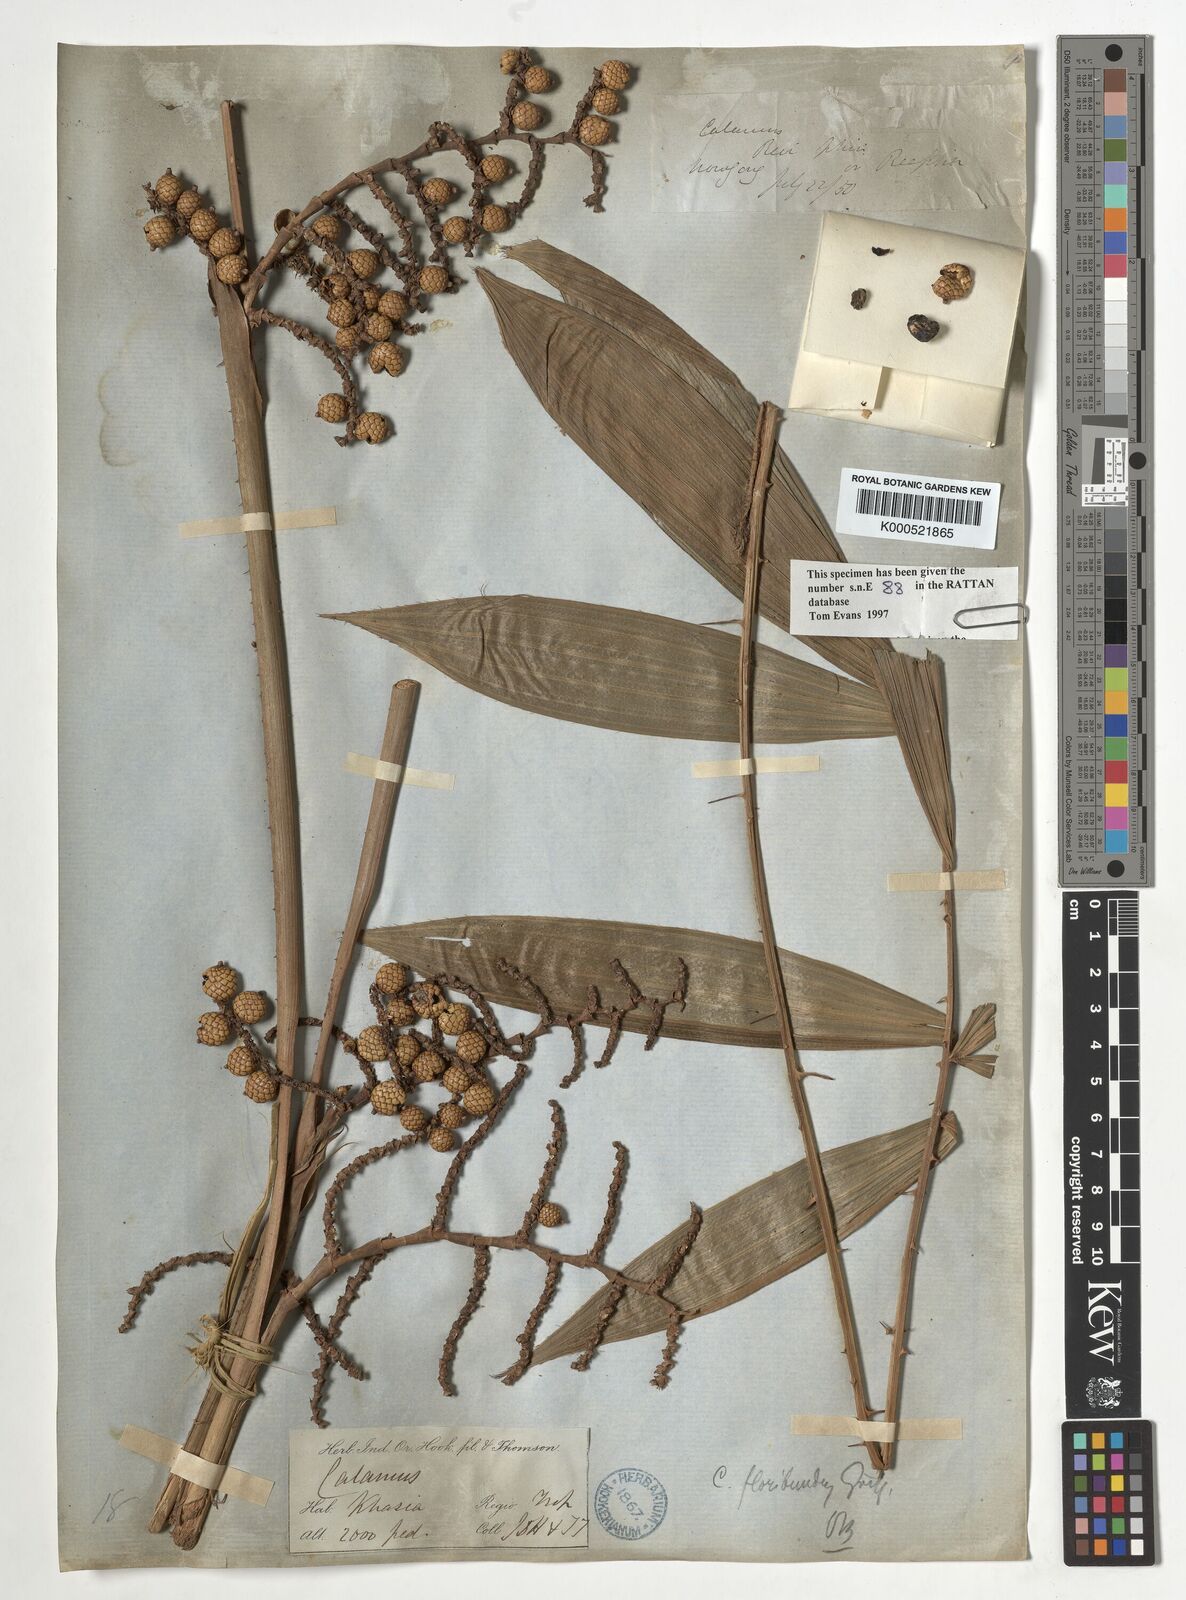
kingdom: Plantae
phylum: Tracheophyta
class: Liliopsida
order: Arecales
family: Arecaceae
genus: Calamus
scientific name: Calamus floribundus
